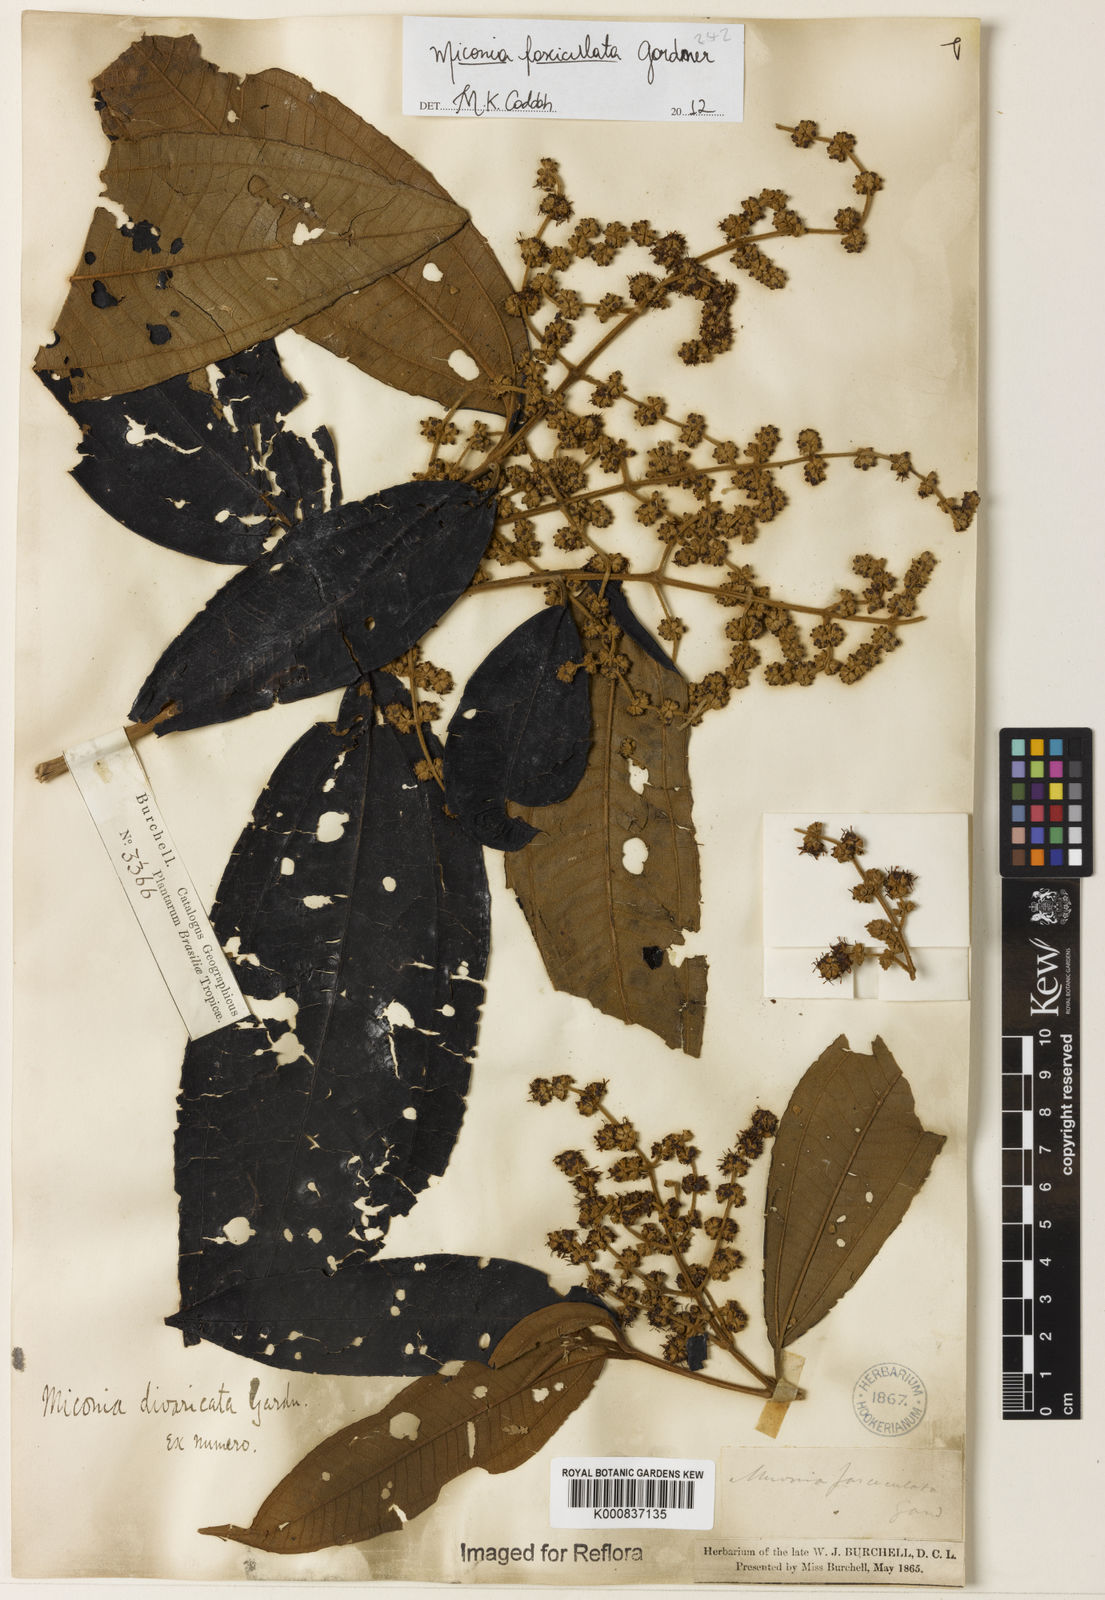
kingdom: Plantae
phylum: Tracheophyta
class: Magnoliopsida
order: Myrtales
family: Melastomataceae
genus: Miconia
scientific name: Miconia fasciculata
